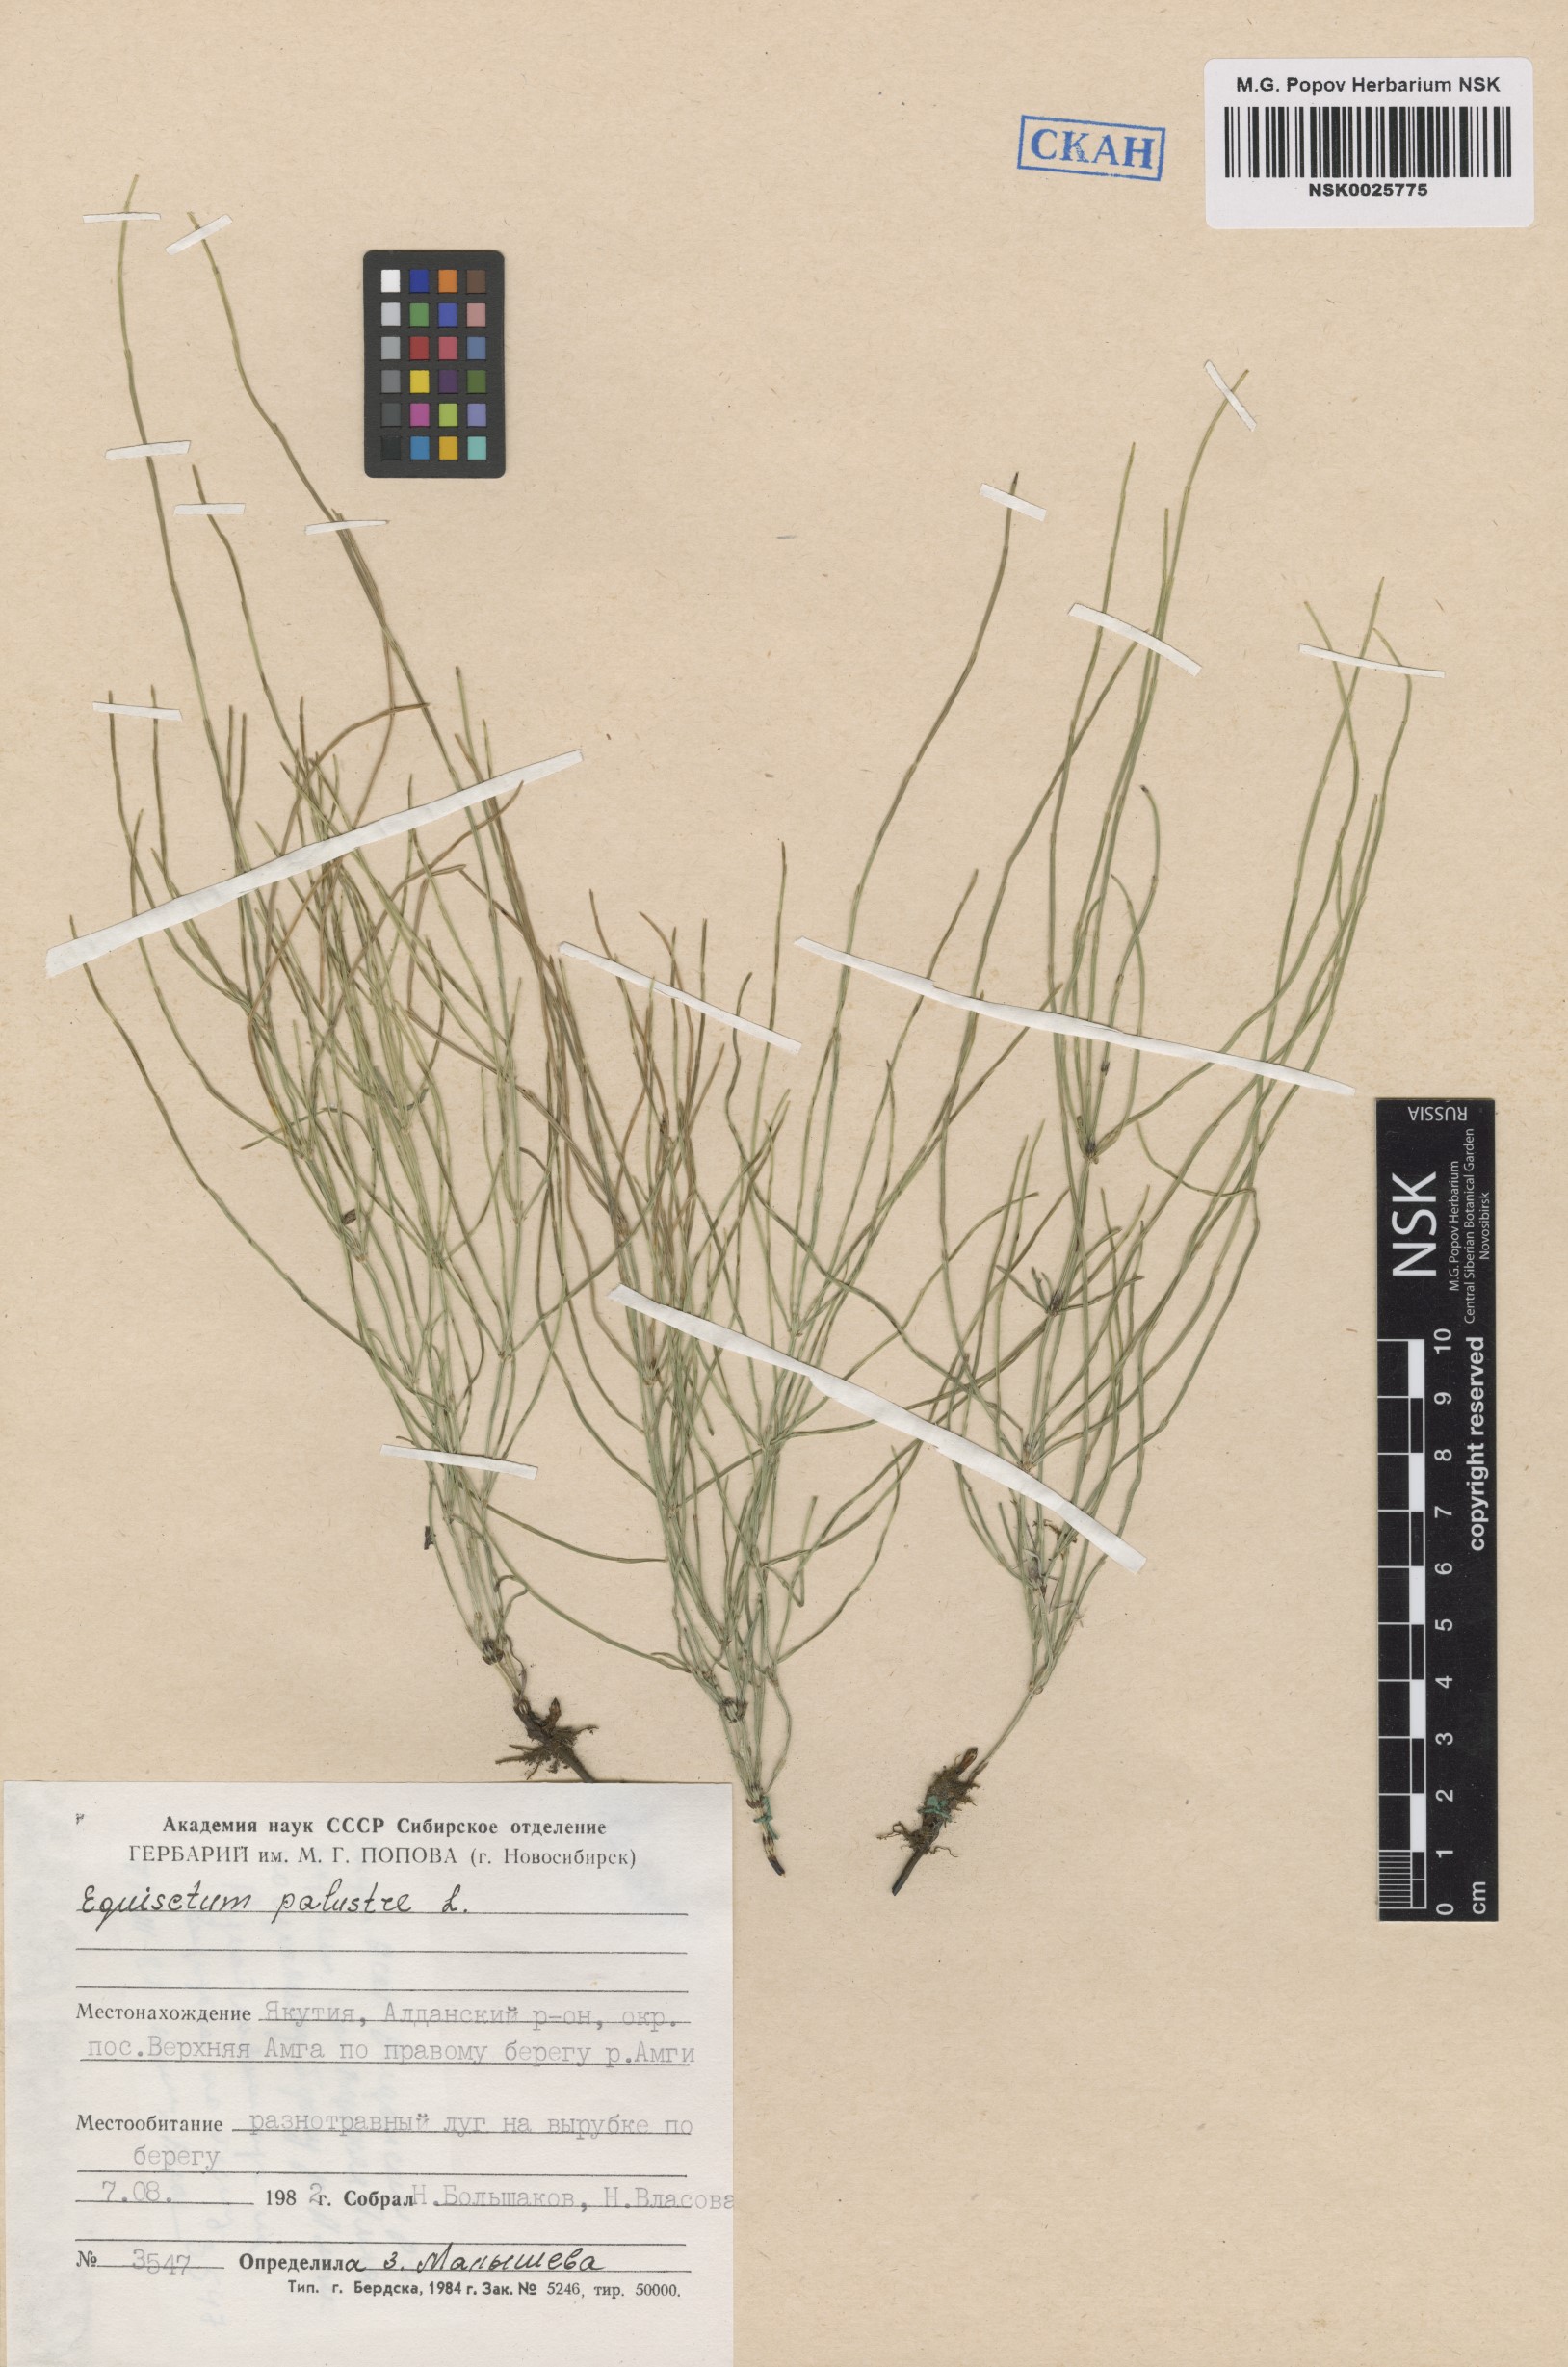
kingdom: Plantae
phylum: Tracheophyta
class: Polypodiopsida
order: Equisetales
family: Equisetaceae
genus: Equisetum
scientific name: Equisetum palustre
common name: Marsh horsetail
